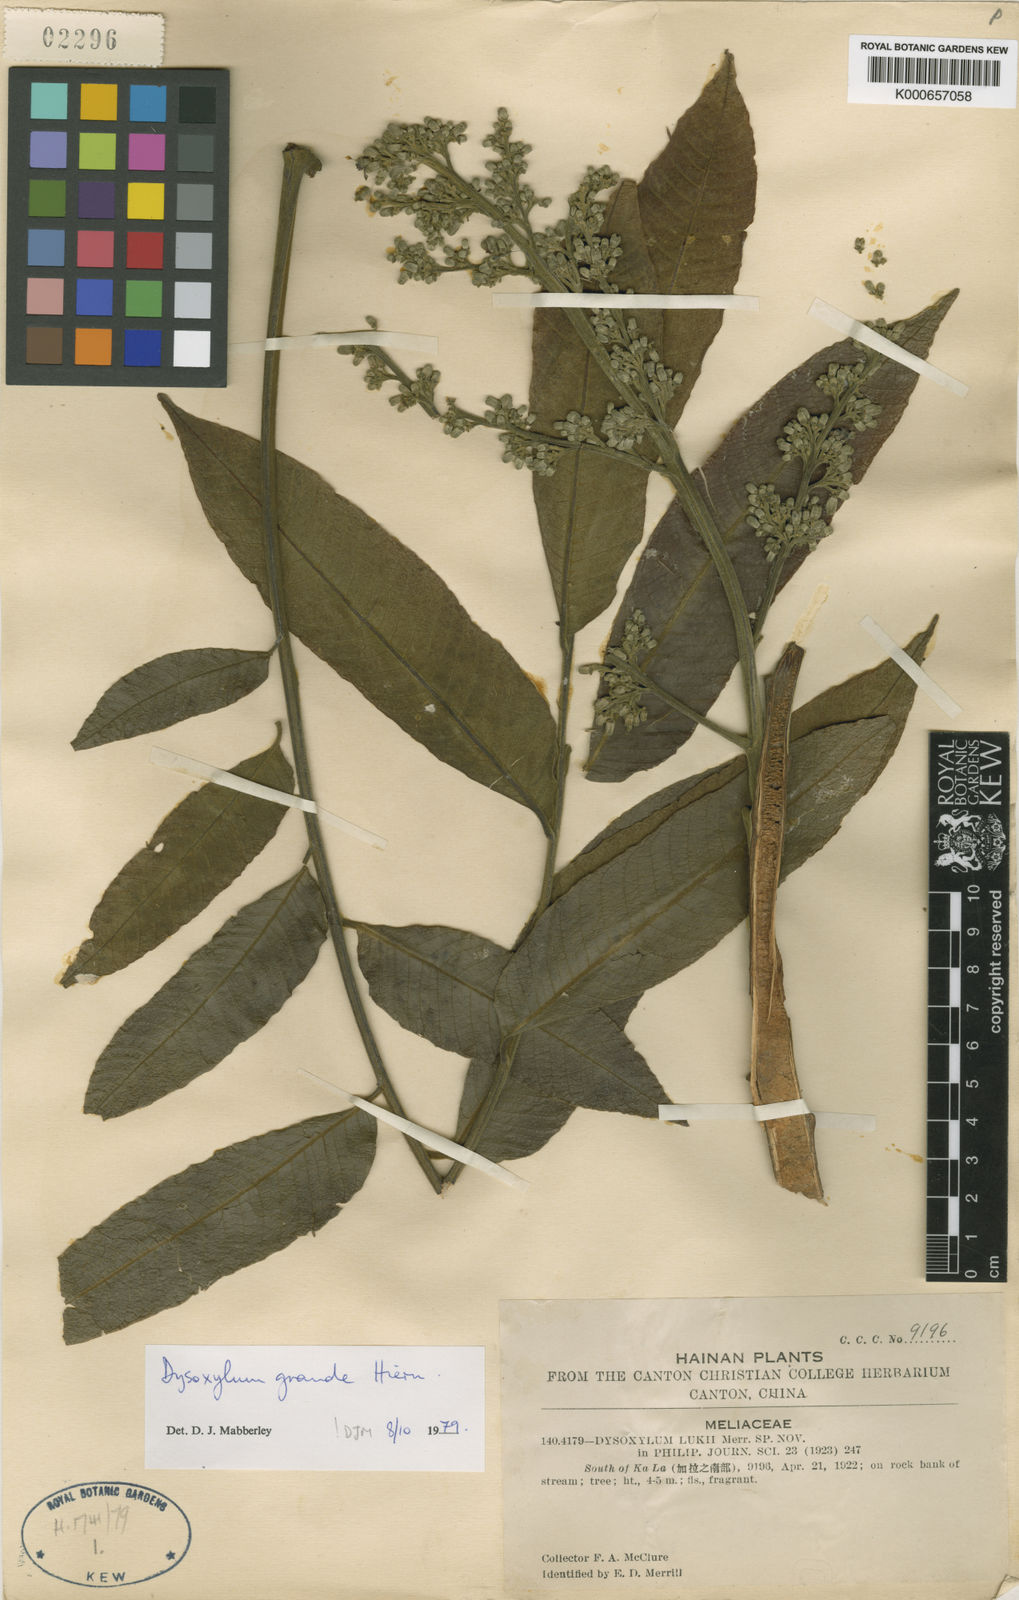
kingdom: Plantae
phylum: Tracheophyta
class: Magnoliopsida
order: Sapindales
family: Meliaceae
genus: Dysoxylum
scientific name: Dysoxylum grande
